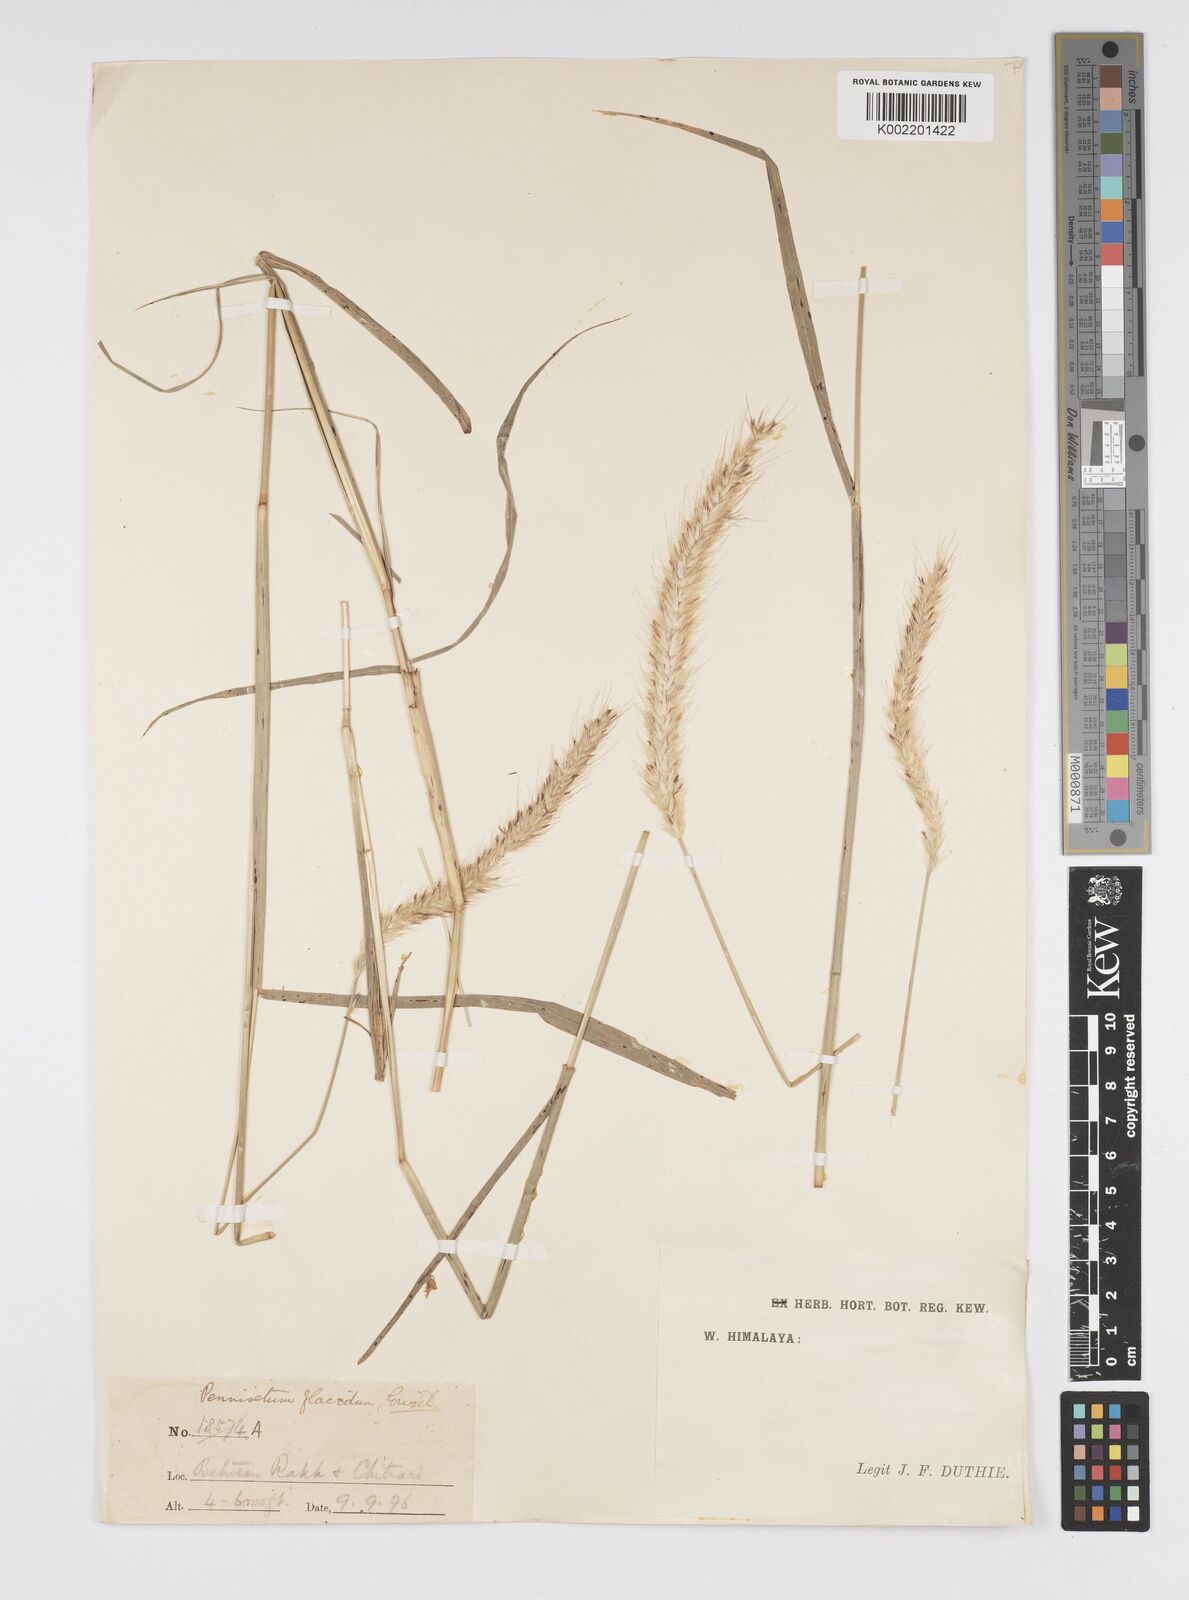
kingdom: Plantae
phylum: Tracheophyta
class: Liliopsida
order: Poales
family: Poaceae
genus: Cenchrus
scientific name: Cenchrus flaccidus
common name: Flaccid grass
